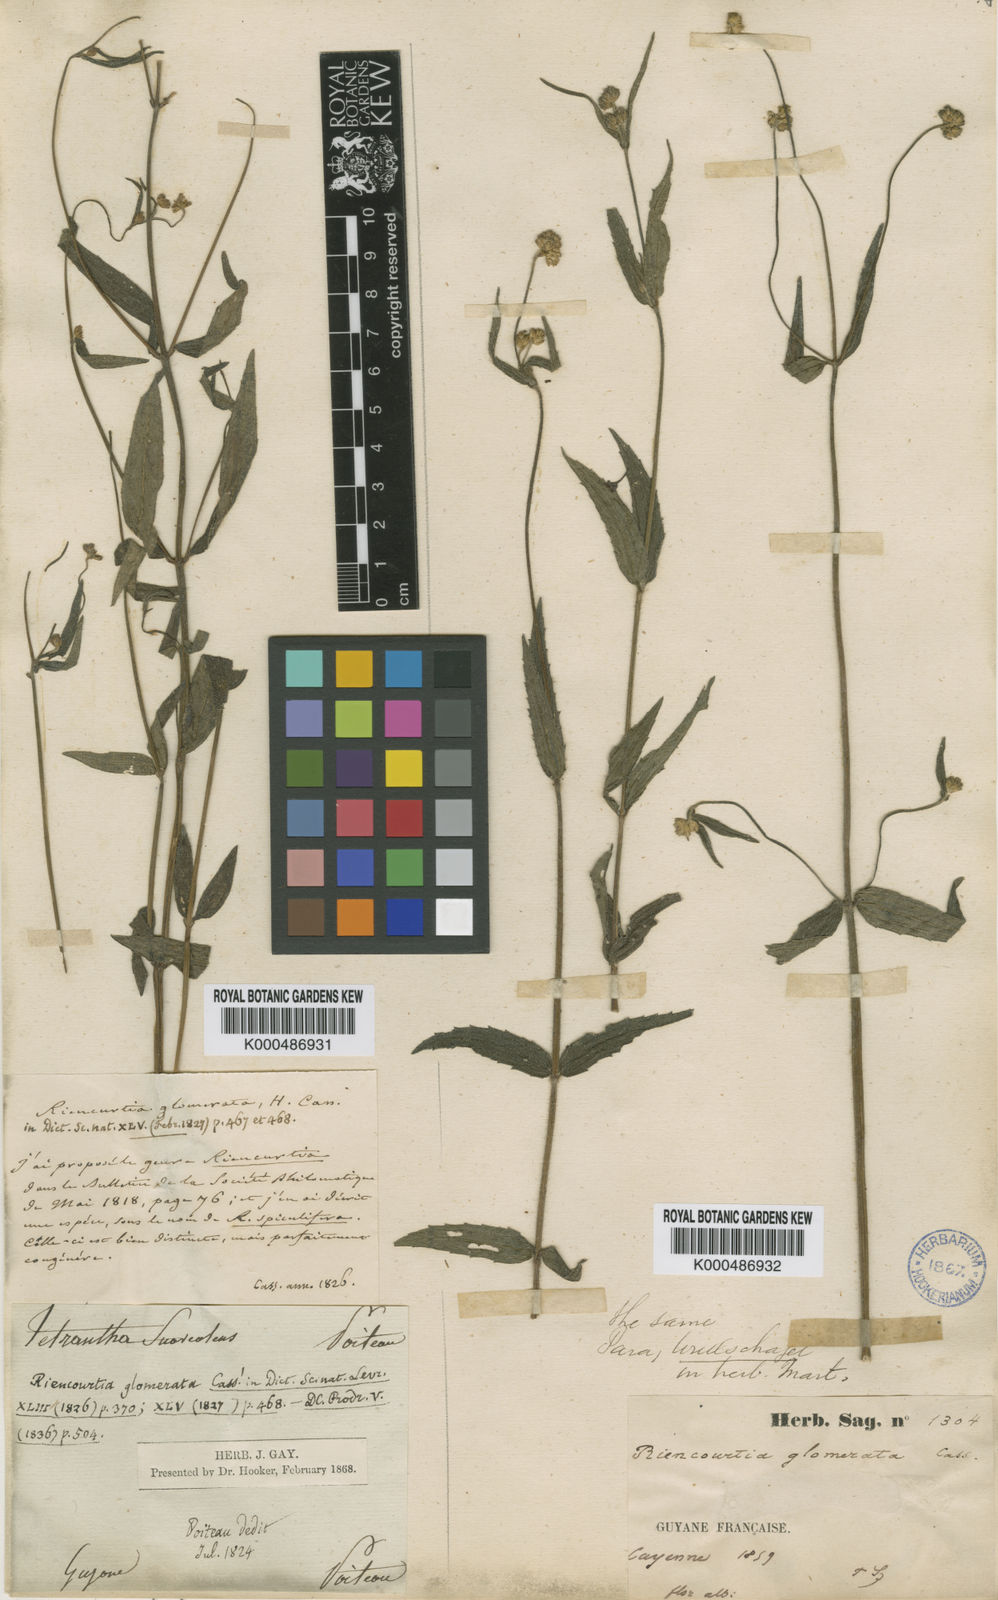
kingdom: Plantae
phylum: Tracheophyta
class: Magnoliopsida
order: Asterales
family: Asteraceae
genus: Riencourtia
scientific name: Riencourtia glomerata
